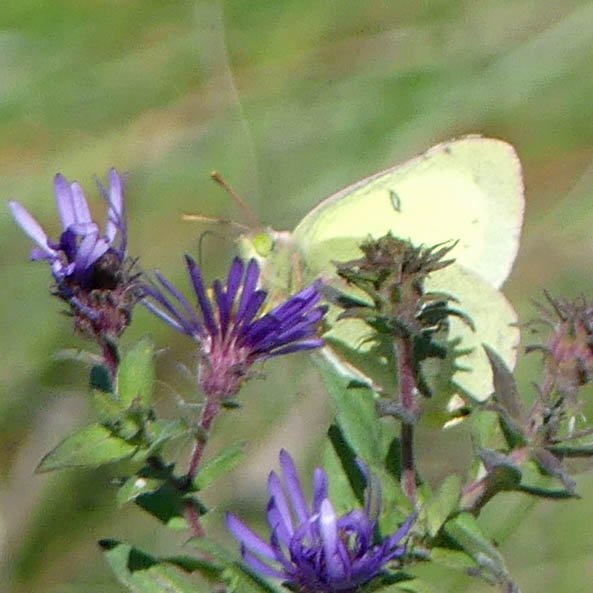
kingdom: Animalia
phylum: Arthropoda
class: Insecta
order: Lepidoptera
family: Pieridae
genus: Colias
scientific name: Colias philodice
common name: Clouded Sulphur
